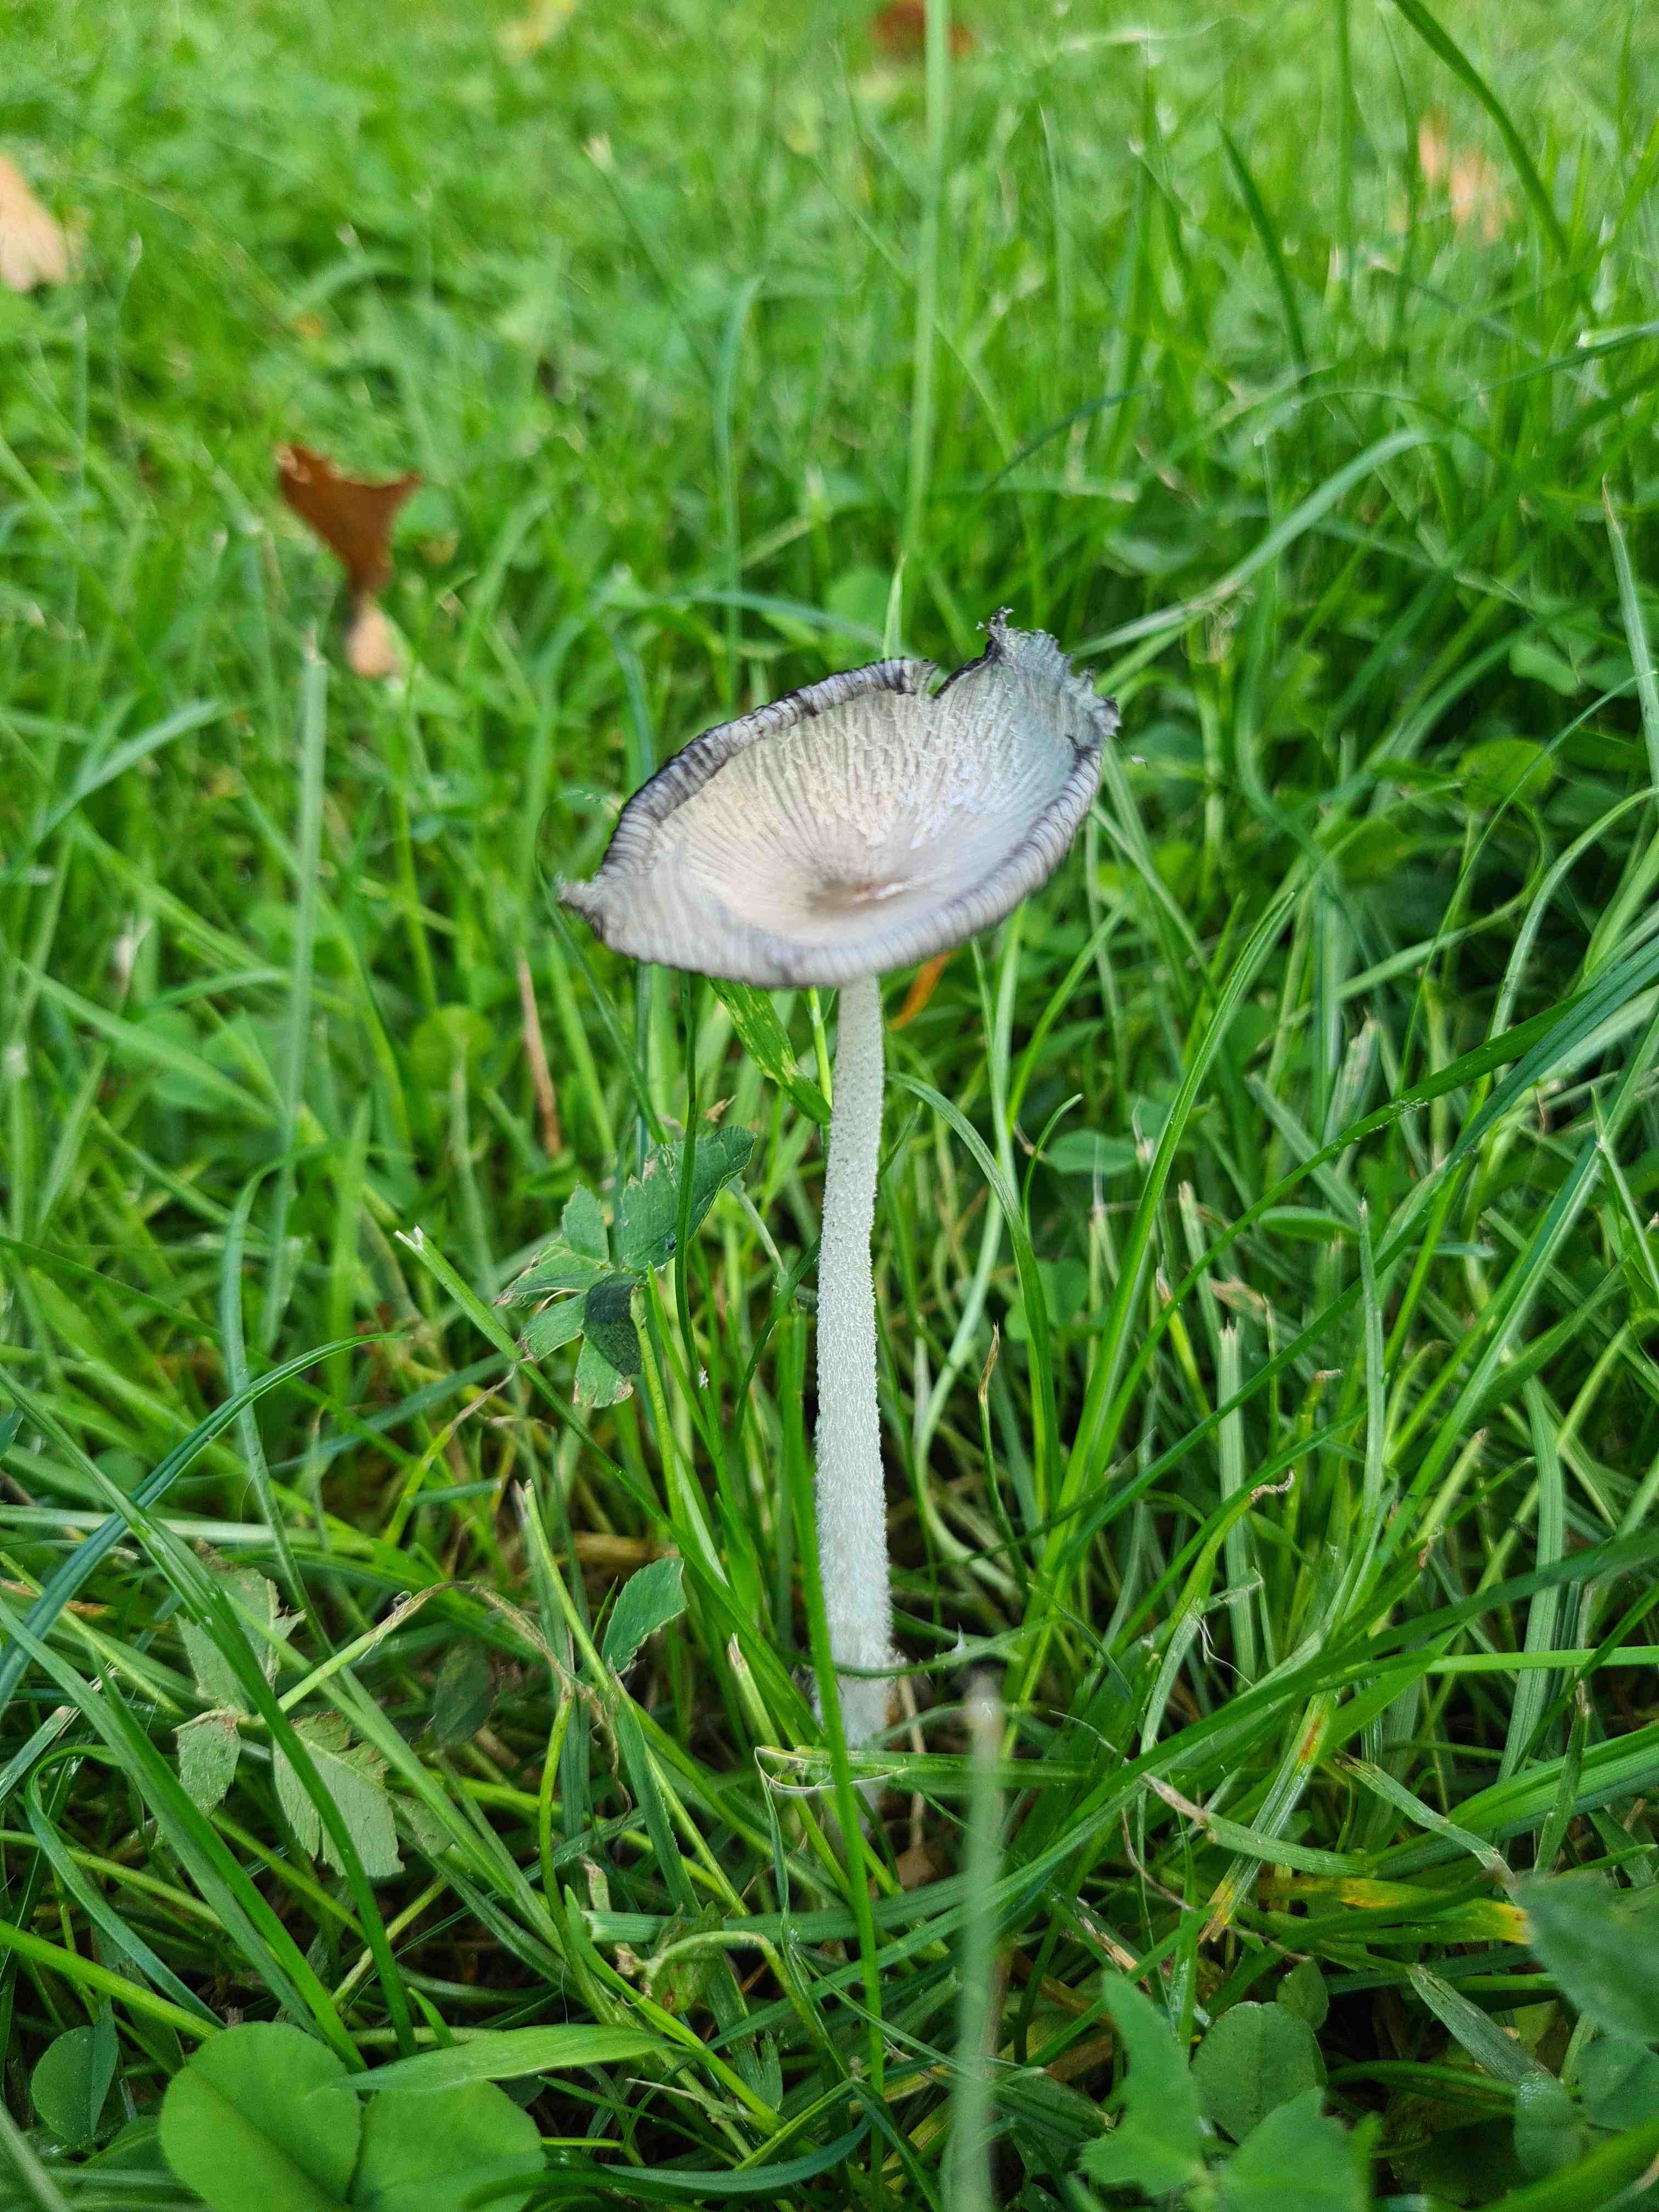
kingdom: Fungi
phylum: Basidiomycota
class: Agaricomycetes
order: Agaricales
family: Psathyrellaceae
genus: Coprinopsis
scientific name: Coprinopsis lagopus
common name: dunstokket blækhat
